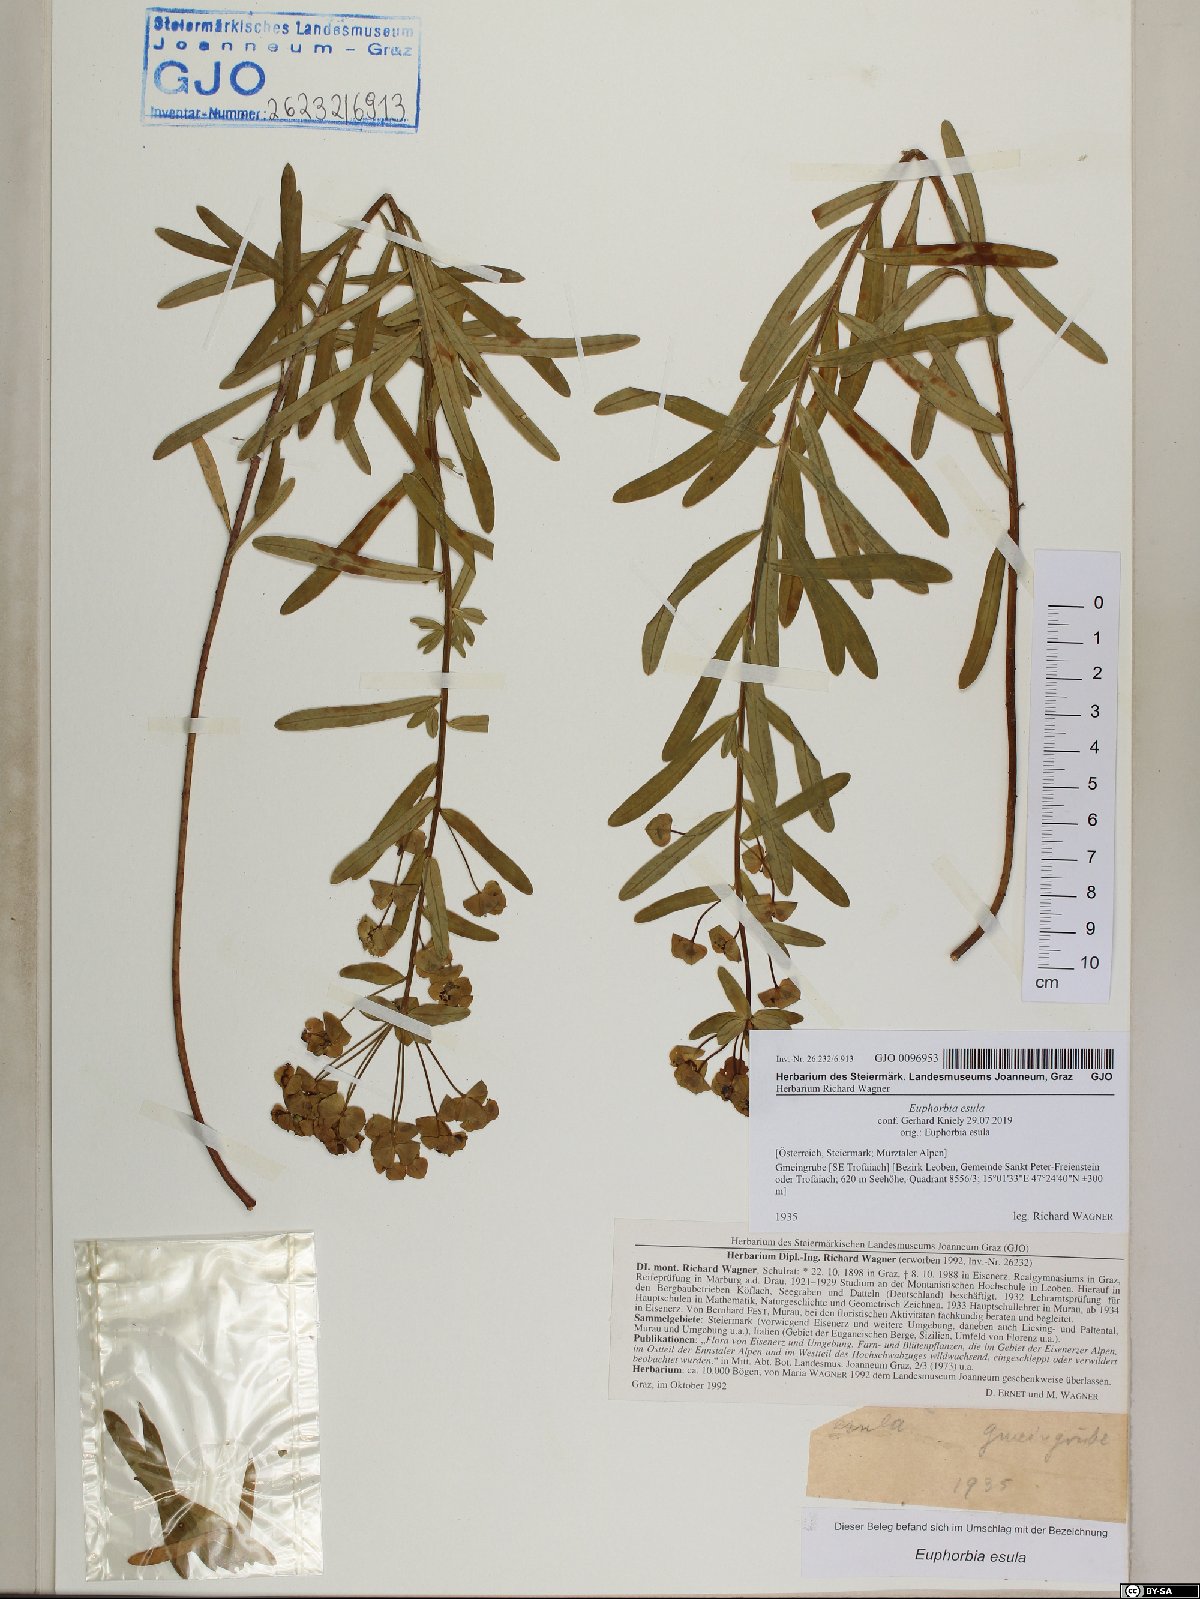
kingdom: Plantae
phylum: Tracheophyta
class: Magnoliopsida
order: Malpighiales
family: Euphorbiaceae
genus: Euphorbia
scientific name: Euphorbia esula
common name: Leafy spurge
